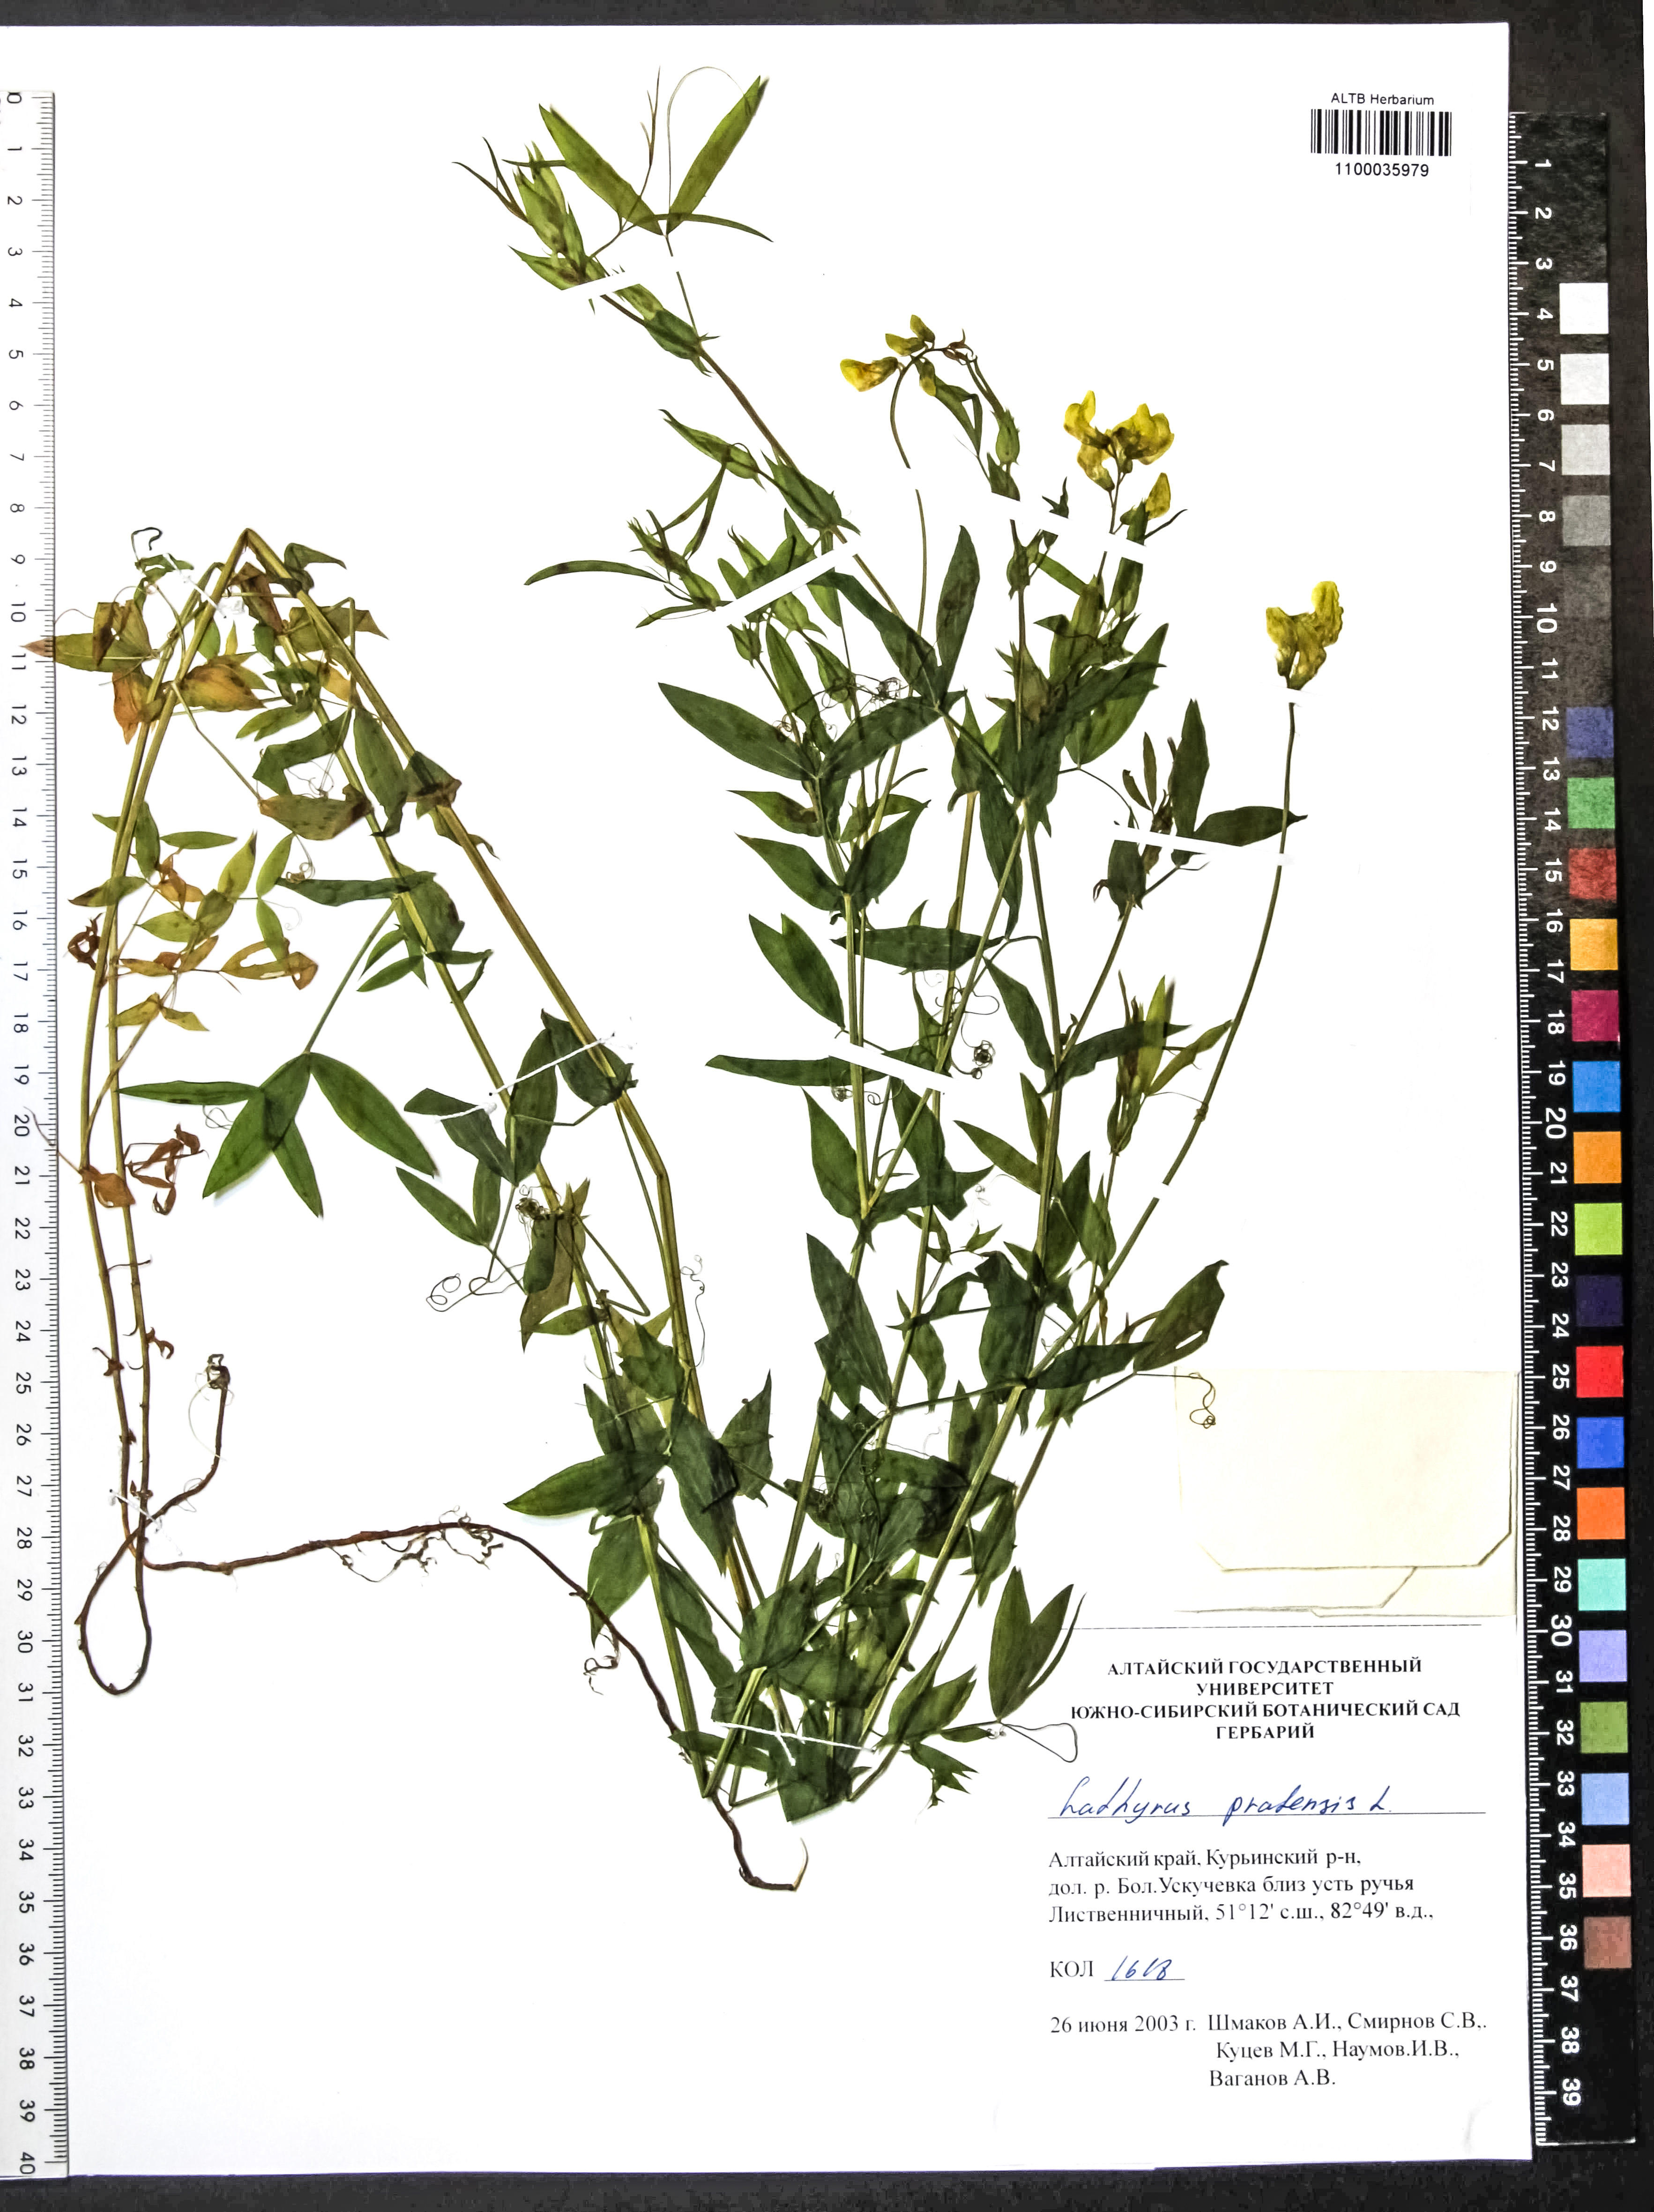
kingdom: Plantae
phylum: Tracheophyta
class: Magnoliopsida
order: Fabales
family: Fabaceae
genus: Lathyrus
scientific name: Lathyrus pratensis
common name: Meadow vetchling
